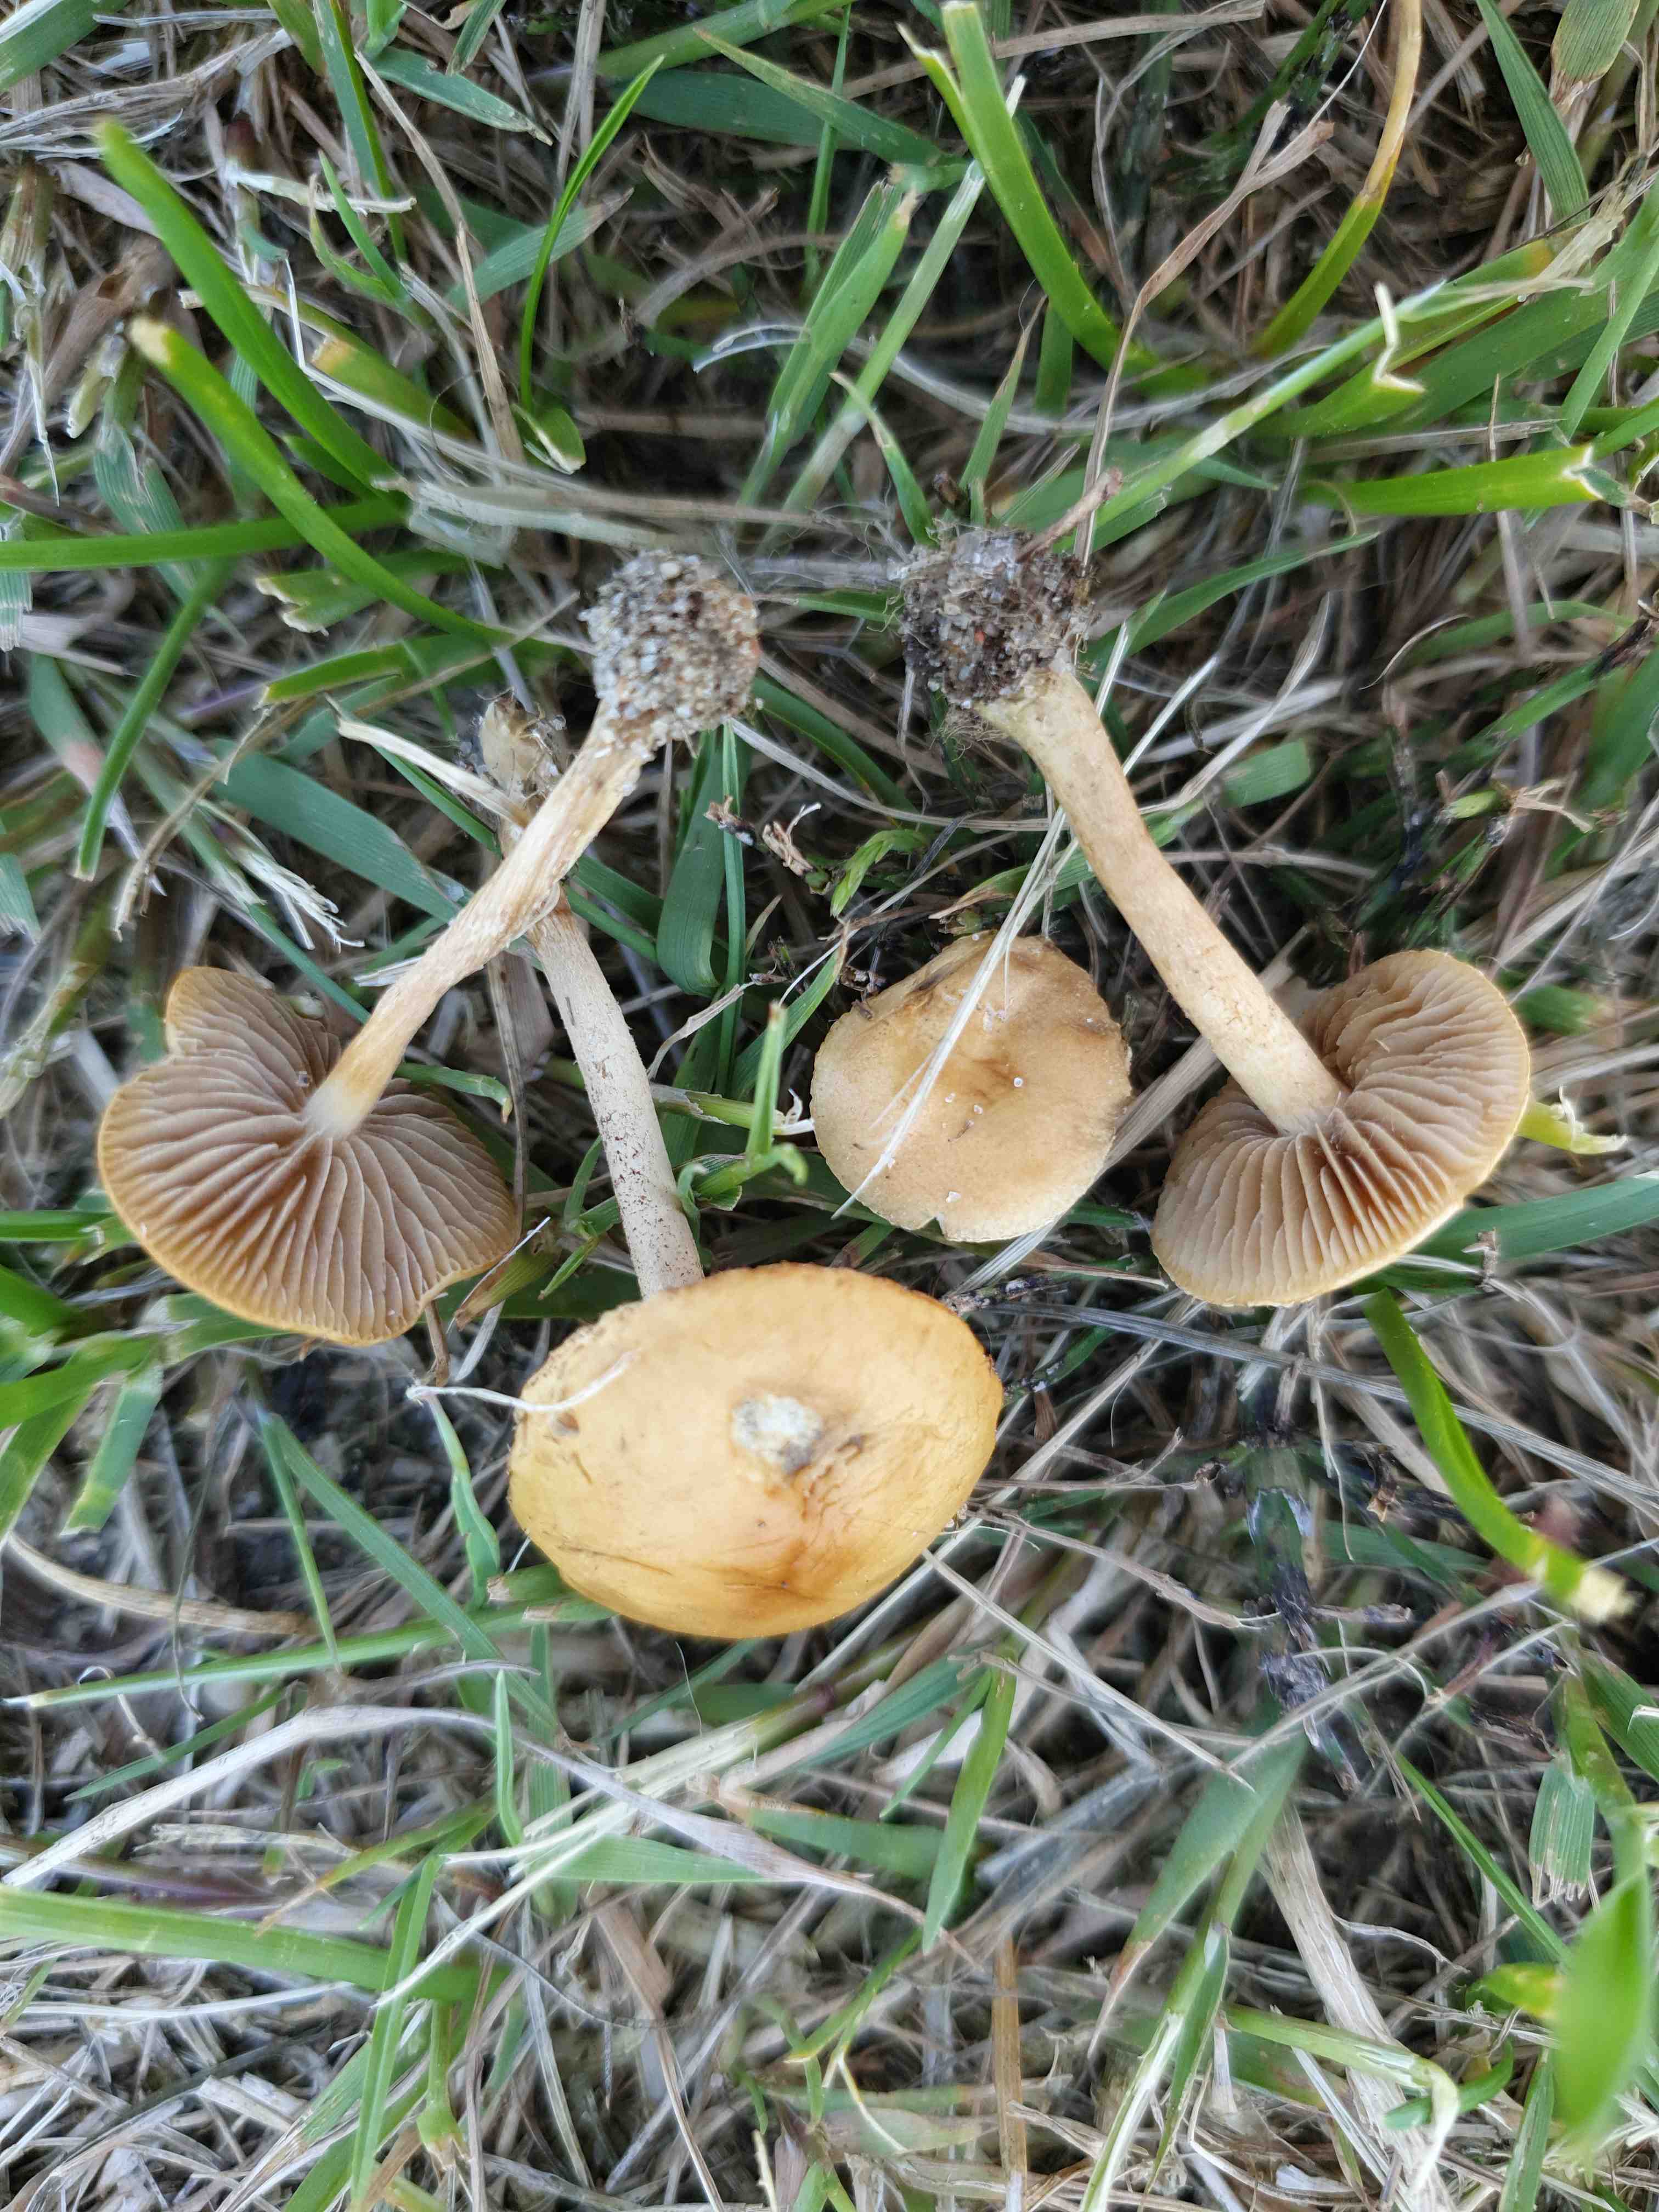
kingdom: Fungi
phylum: Basidiomycota
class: Agaricomycetes
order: Agaricales
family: Strophariaceae
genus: Agrocybe
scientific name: Agrocybe pediades
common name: almindelig agerhat
